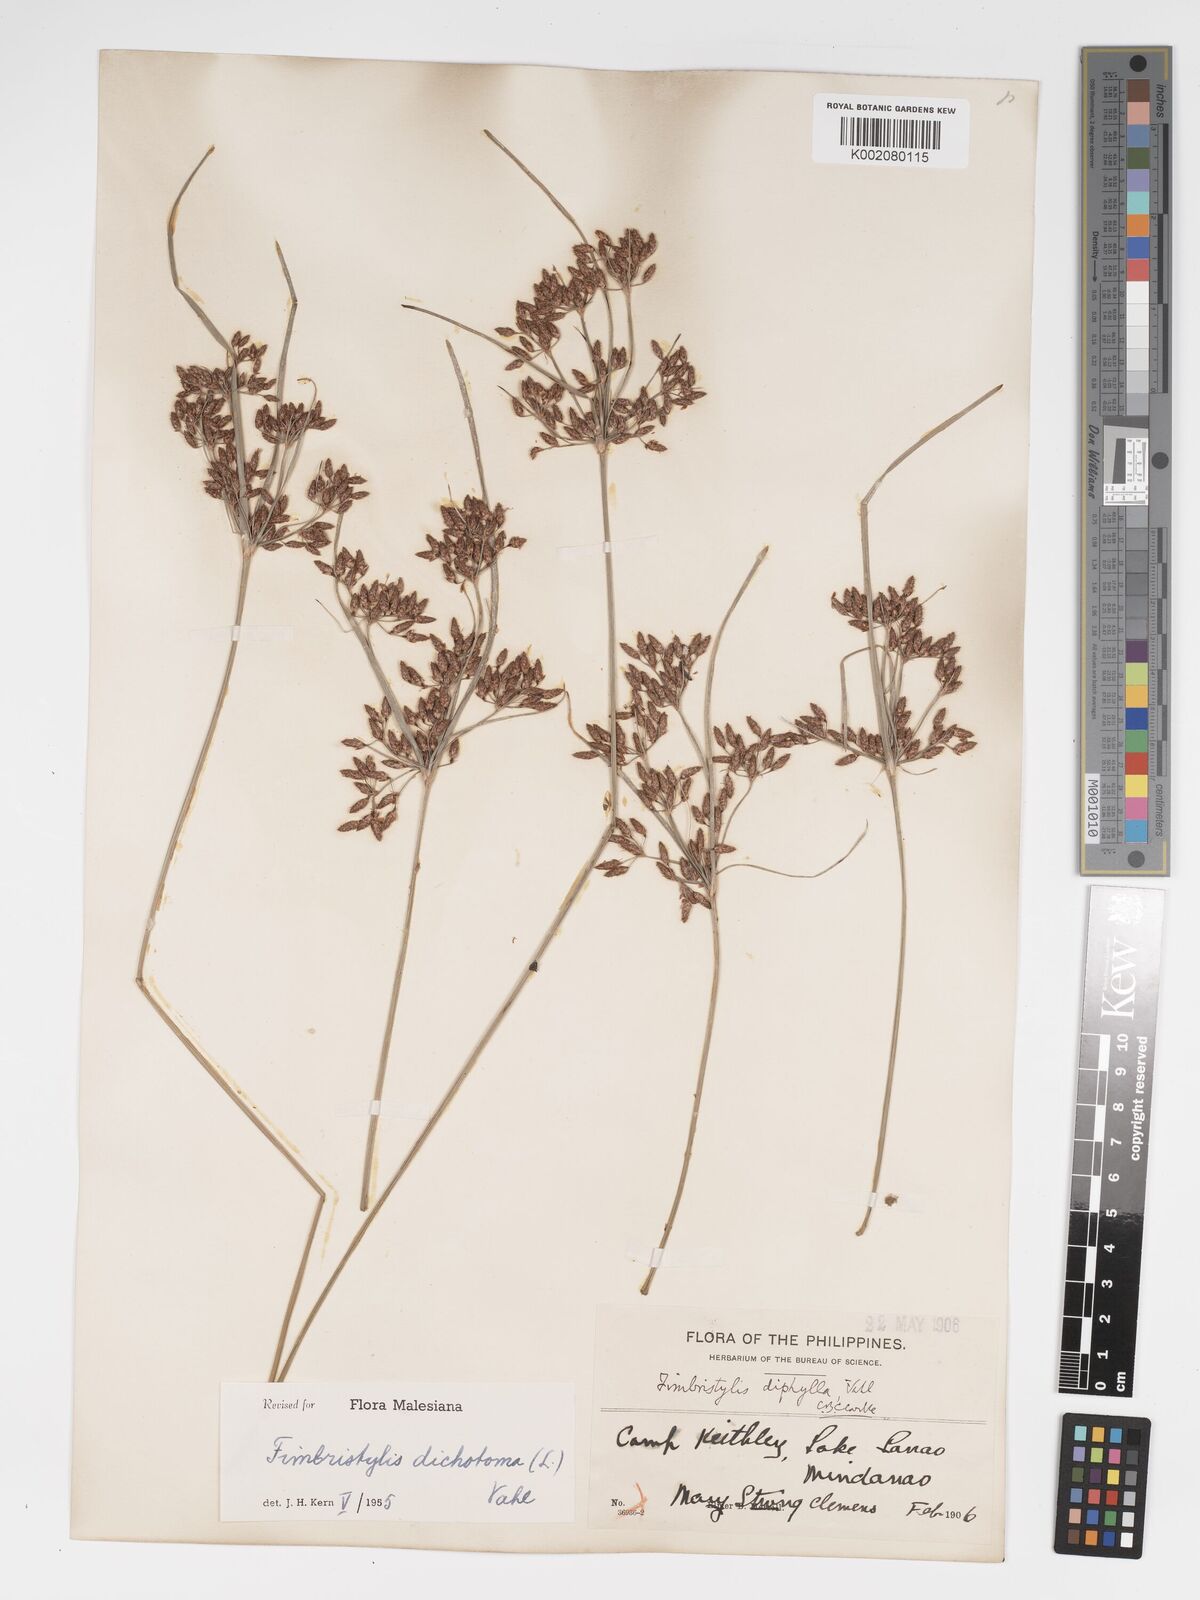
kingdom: Plantae
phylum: Tracheophyta
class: Liliopsida
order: Poales
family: Cyperaceae
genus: Fimbristylis
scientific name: Fimbristylis dichotoma
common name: Forked fimbry
